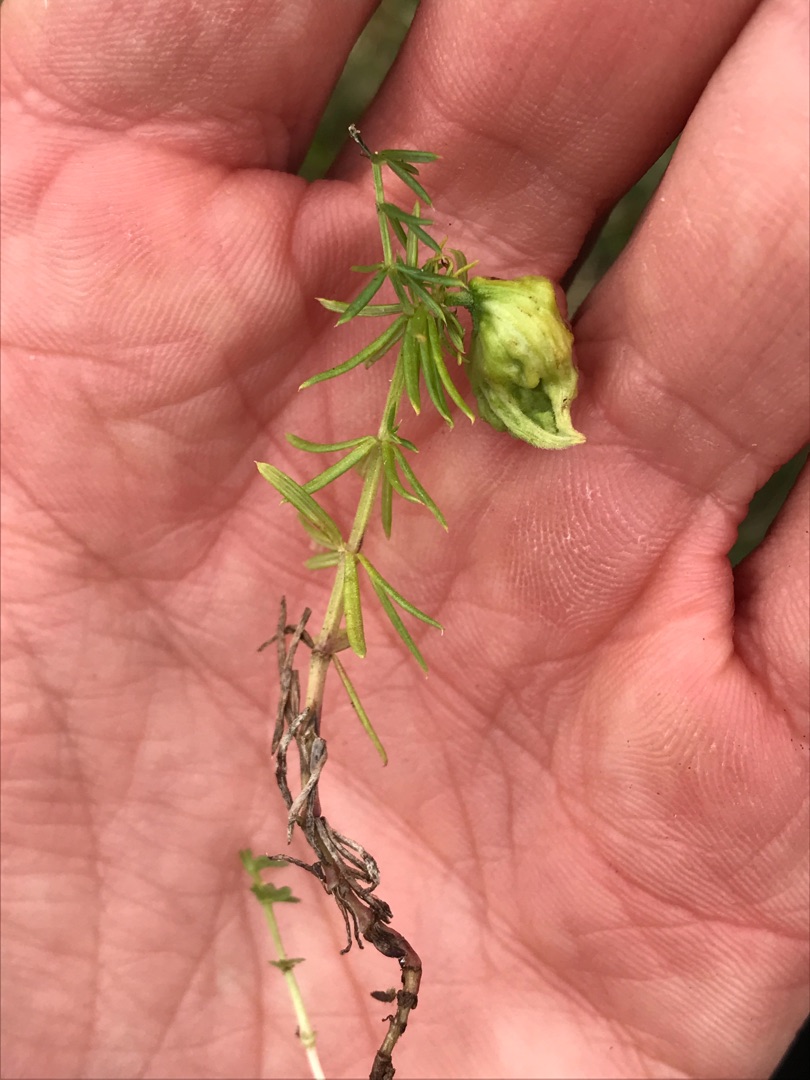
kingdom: Animalia
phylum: Arthropoda
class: Arachnida
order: Trombidiformes
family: Eriophyidae
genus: Aceria
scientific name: Aceria galiobia
